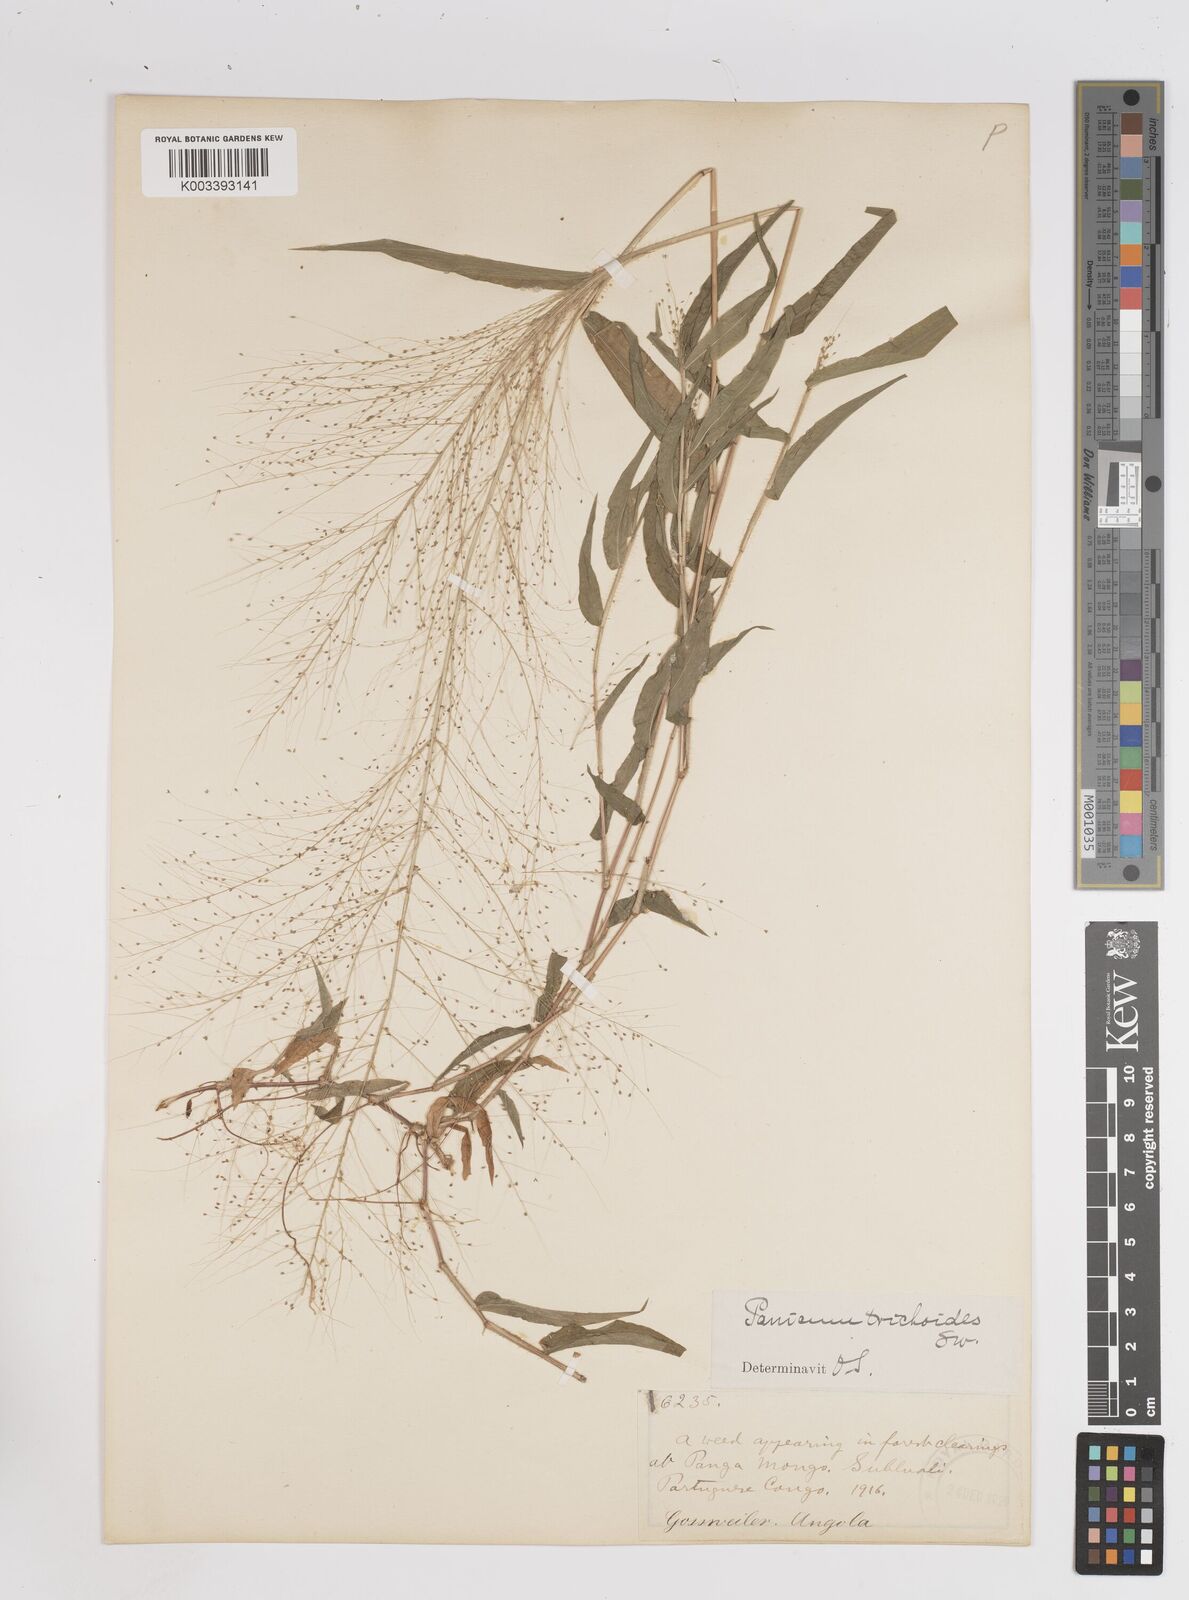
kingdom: Plantae
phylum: Tracheophyta
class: Liliopsida
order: Poales
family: Poaceae
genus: Panicum
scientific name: Panicum trichoides
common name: Tickle grass
